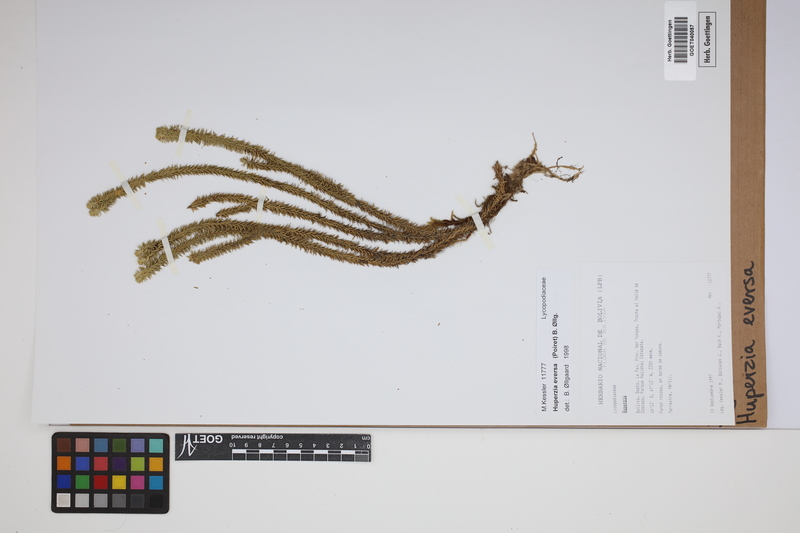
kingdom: Plantae
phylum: Tracheophyta
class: Lycopodiopsida
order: Lycopodiales
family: Lycopodiaceae
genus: Phlegmariurus
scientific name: Phlegmariurus eversus
